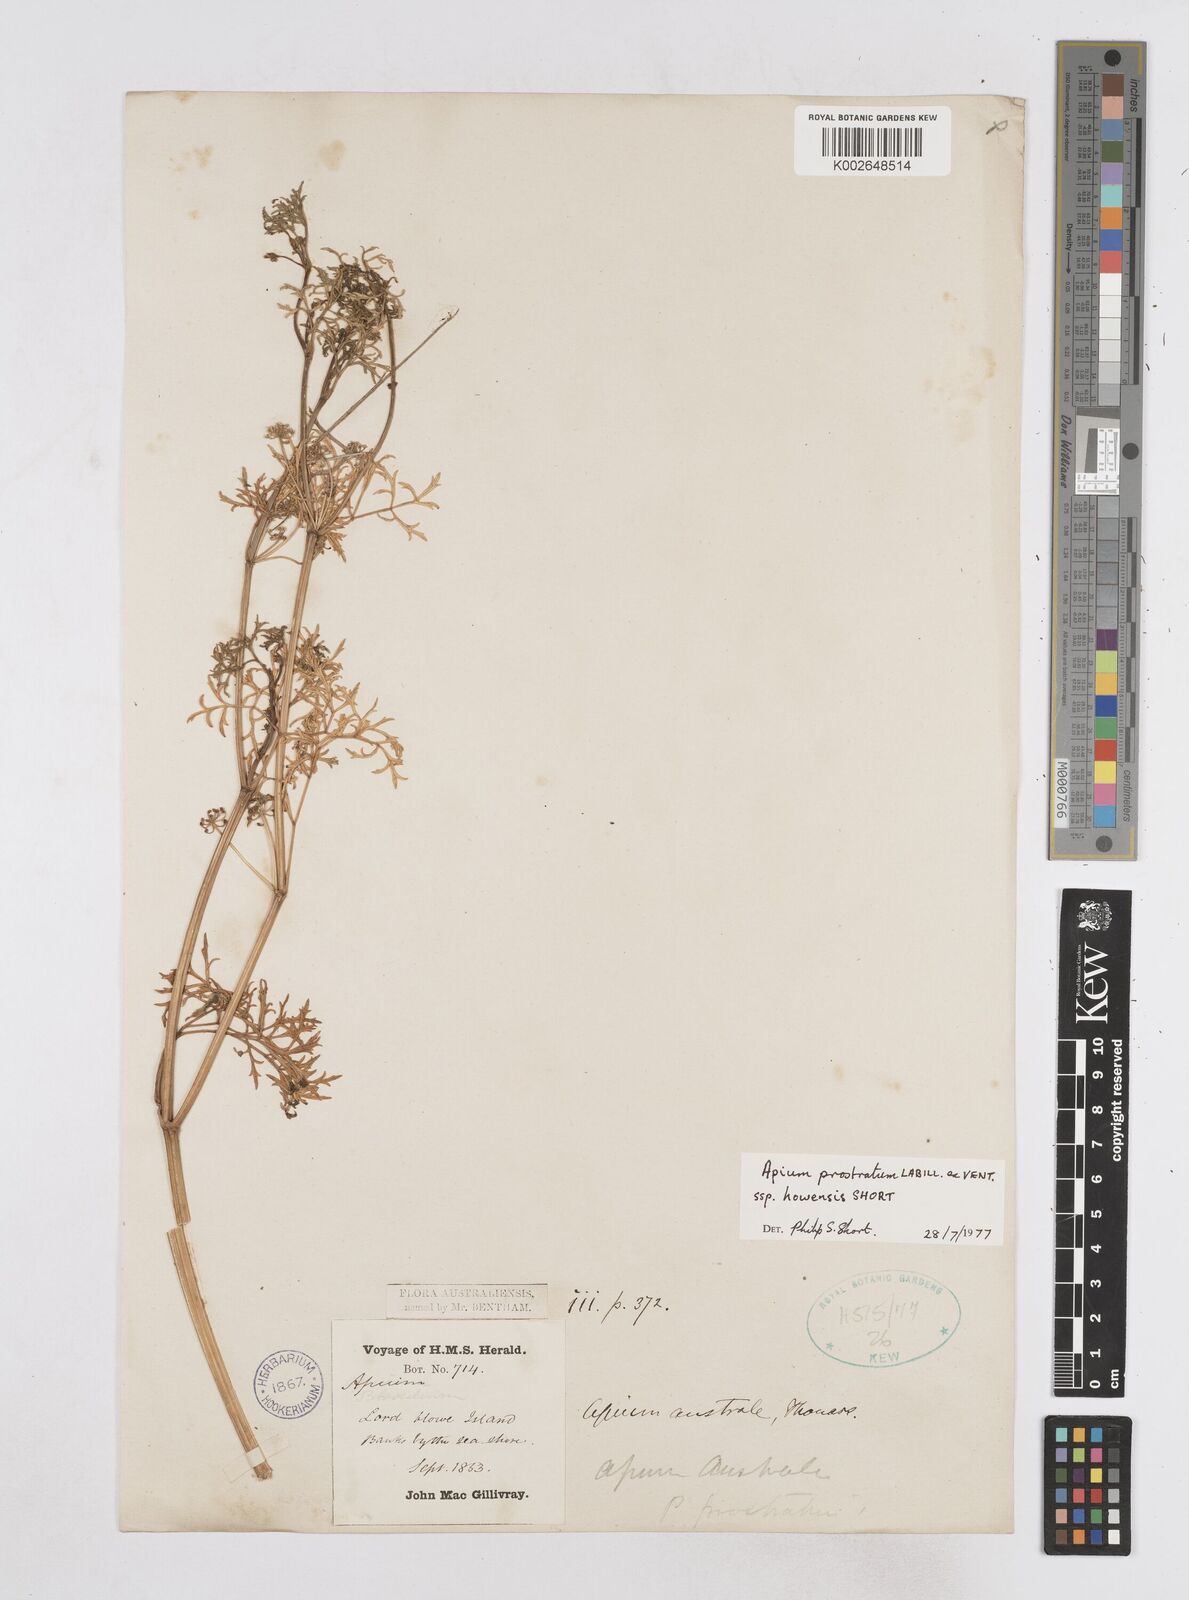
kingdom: Plantae
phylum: Tracheophyta
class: Magnoliopsida
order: Apiales
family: Apiaceae
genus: Apium
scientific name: Apium prostratum
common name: Prostrate marshwort
